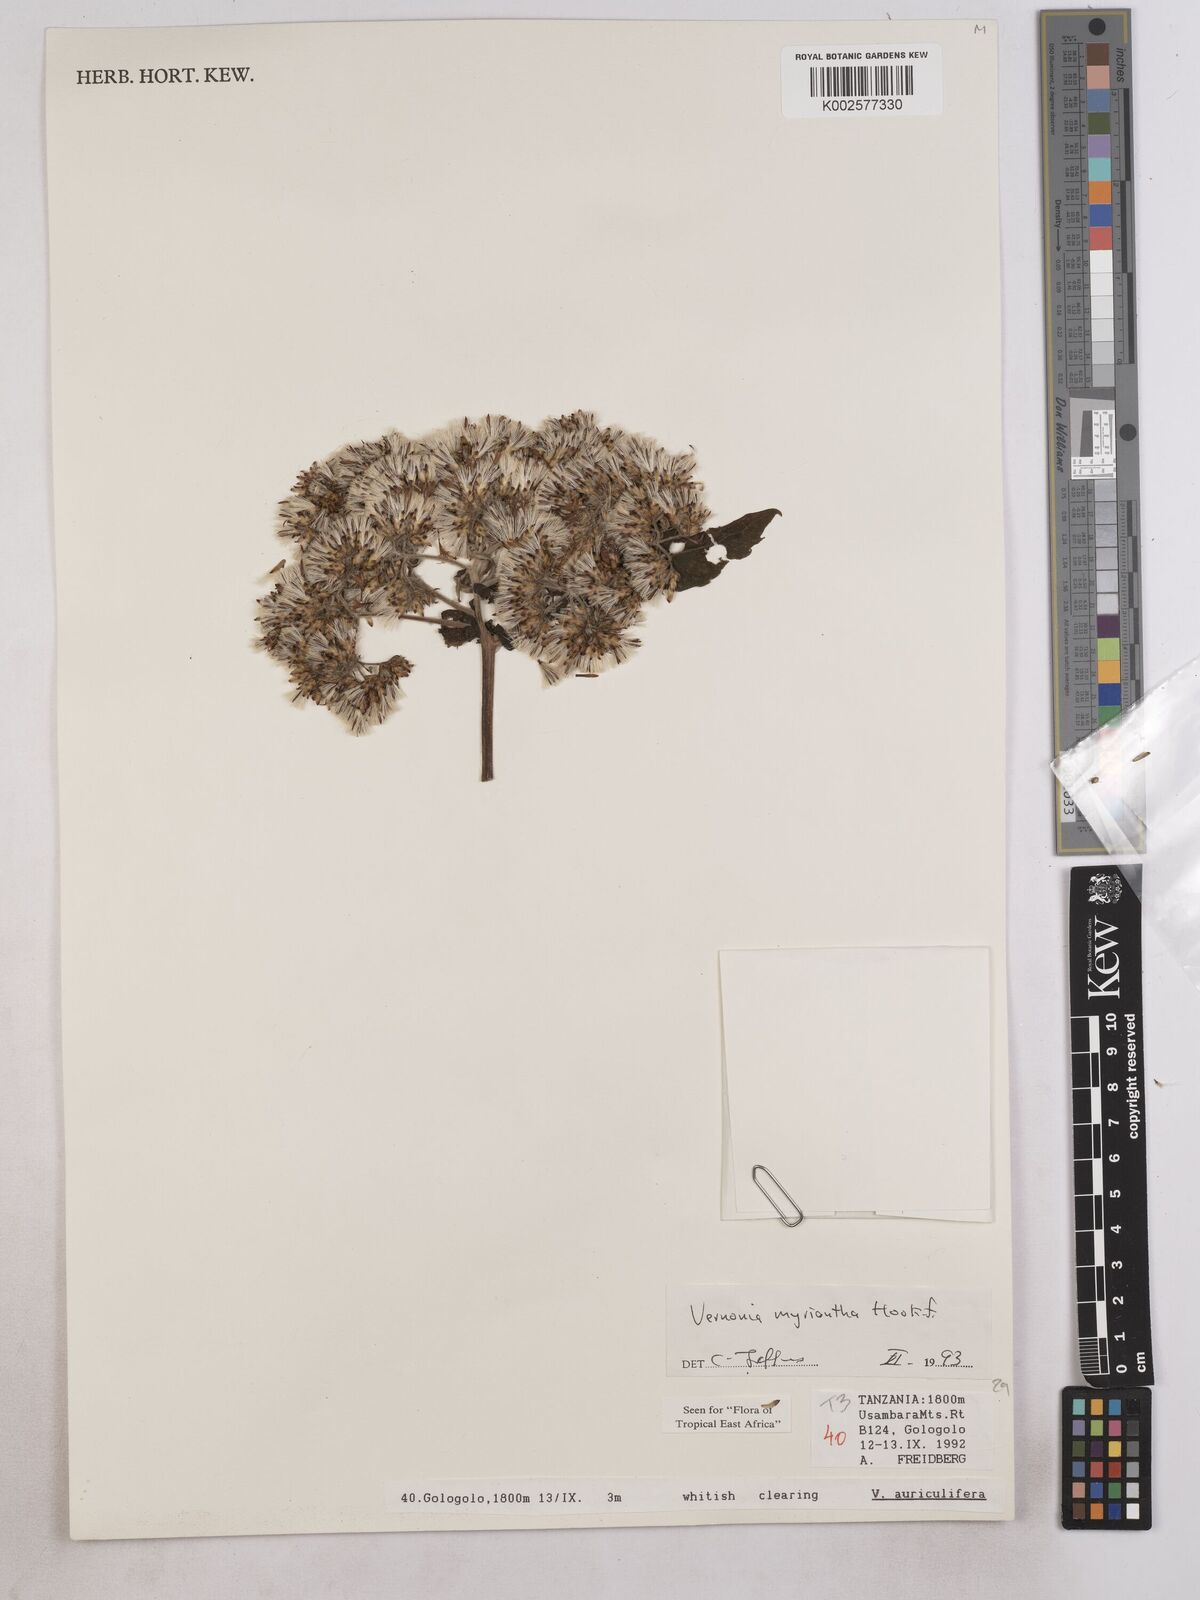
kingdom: Plantae
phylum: Tracheophyta
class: Magnoliopsida
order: Asterales
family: Asteraceae
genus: Gymnanthemum
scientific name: Gymnanthemum myrianthum
